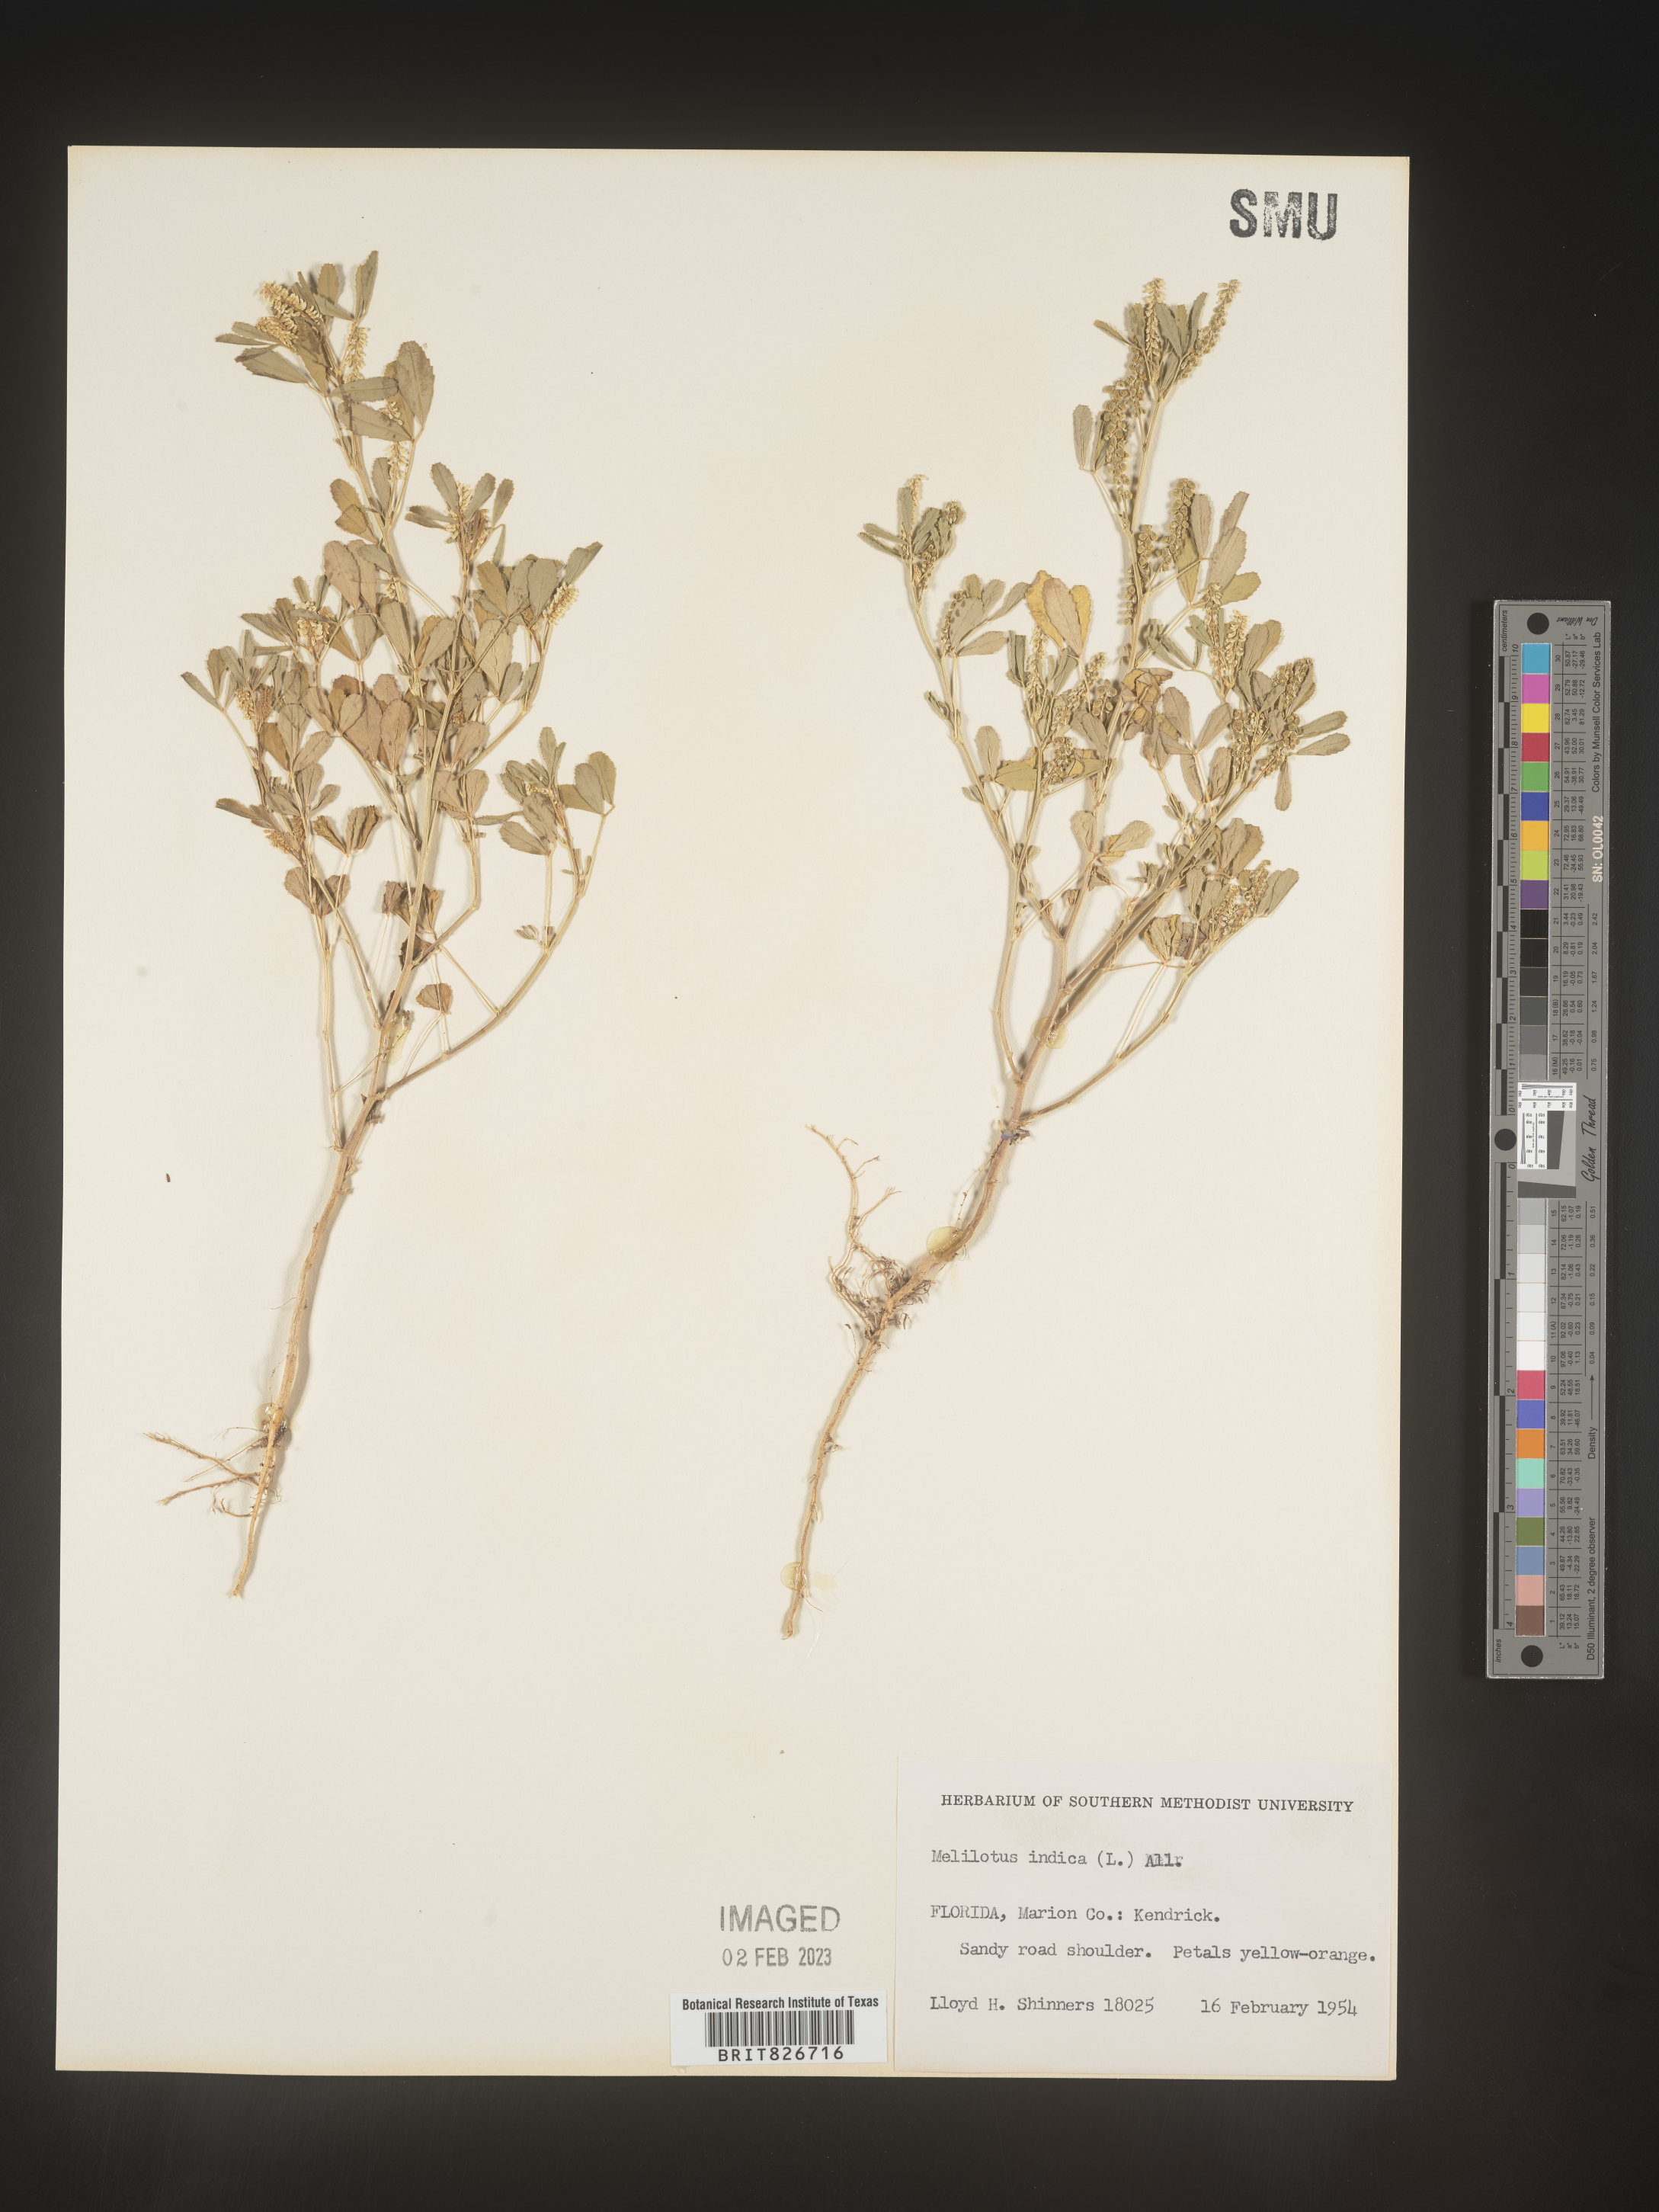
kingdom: Plantae
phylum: Tracheophyta
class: Magnoliopsida
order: Fabales
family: Fabaceae
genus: Melilotus
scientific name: Melilotus indicus
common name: Small melilot
